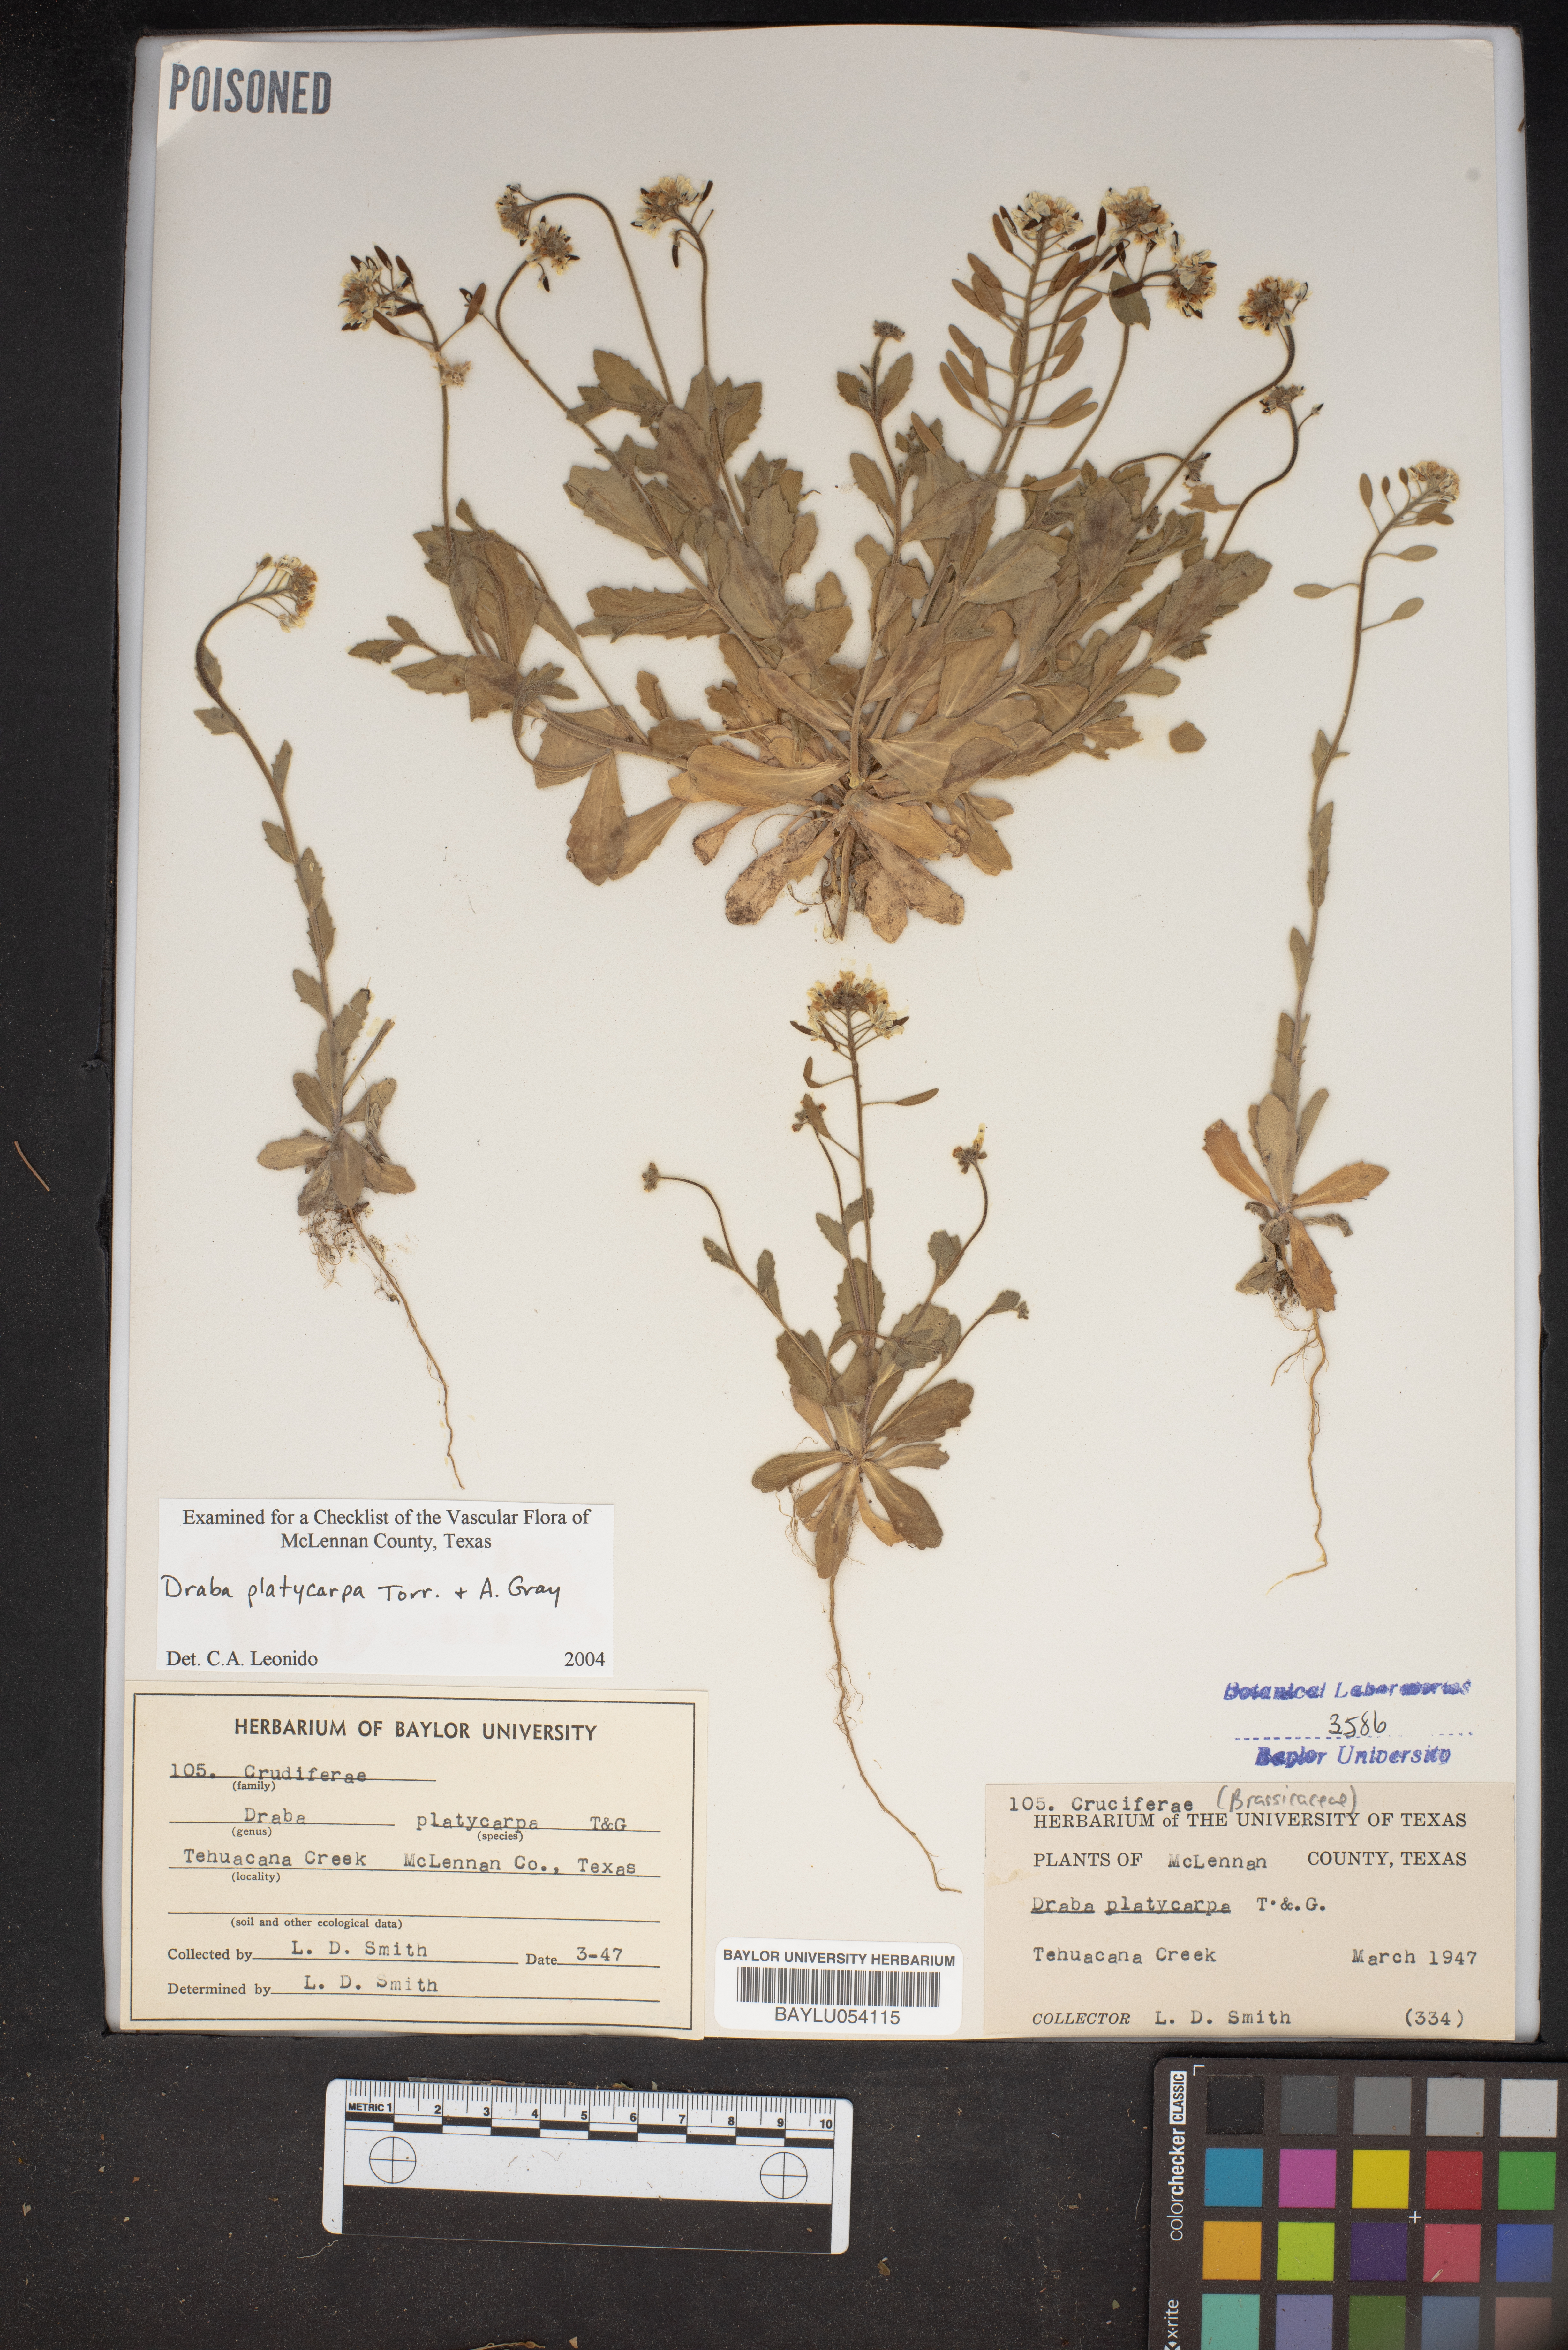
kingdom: Plantae
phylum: Tracheophyta
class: Magnoliopsida
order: Brassicales
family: Brassicaceae
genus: Tomostima
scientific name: Tomostima platycarpa
